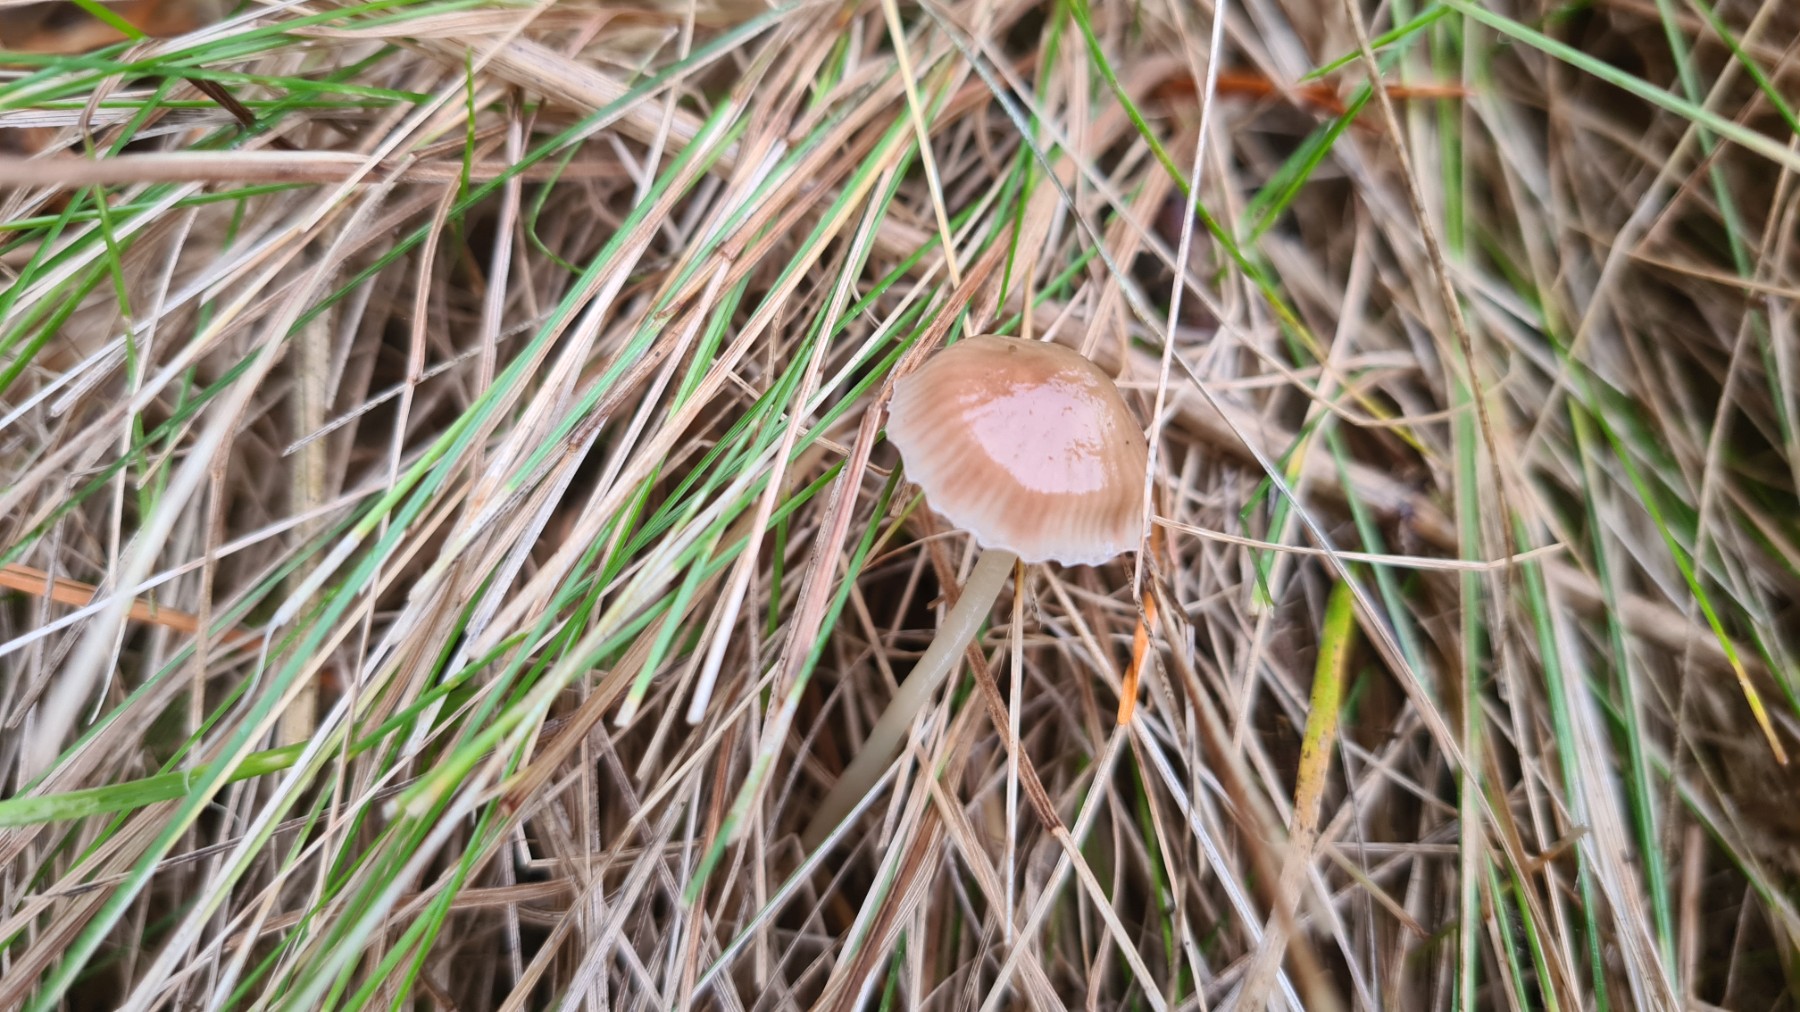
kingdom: Fungi
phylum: Basidiomycota
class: Agaricomycetes
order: Agaricales
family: Mycenaceae
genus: Mycena
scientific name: Mycena epipterygia
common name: gulstokket huesvamp
